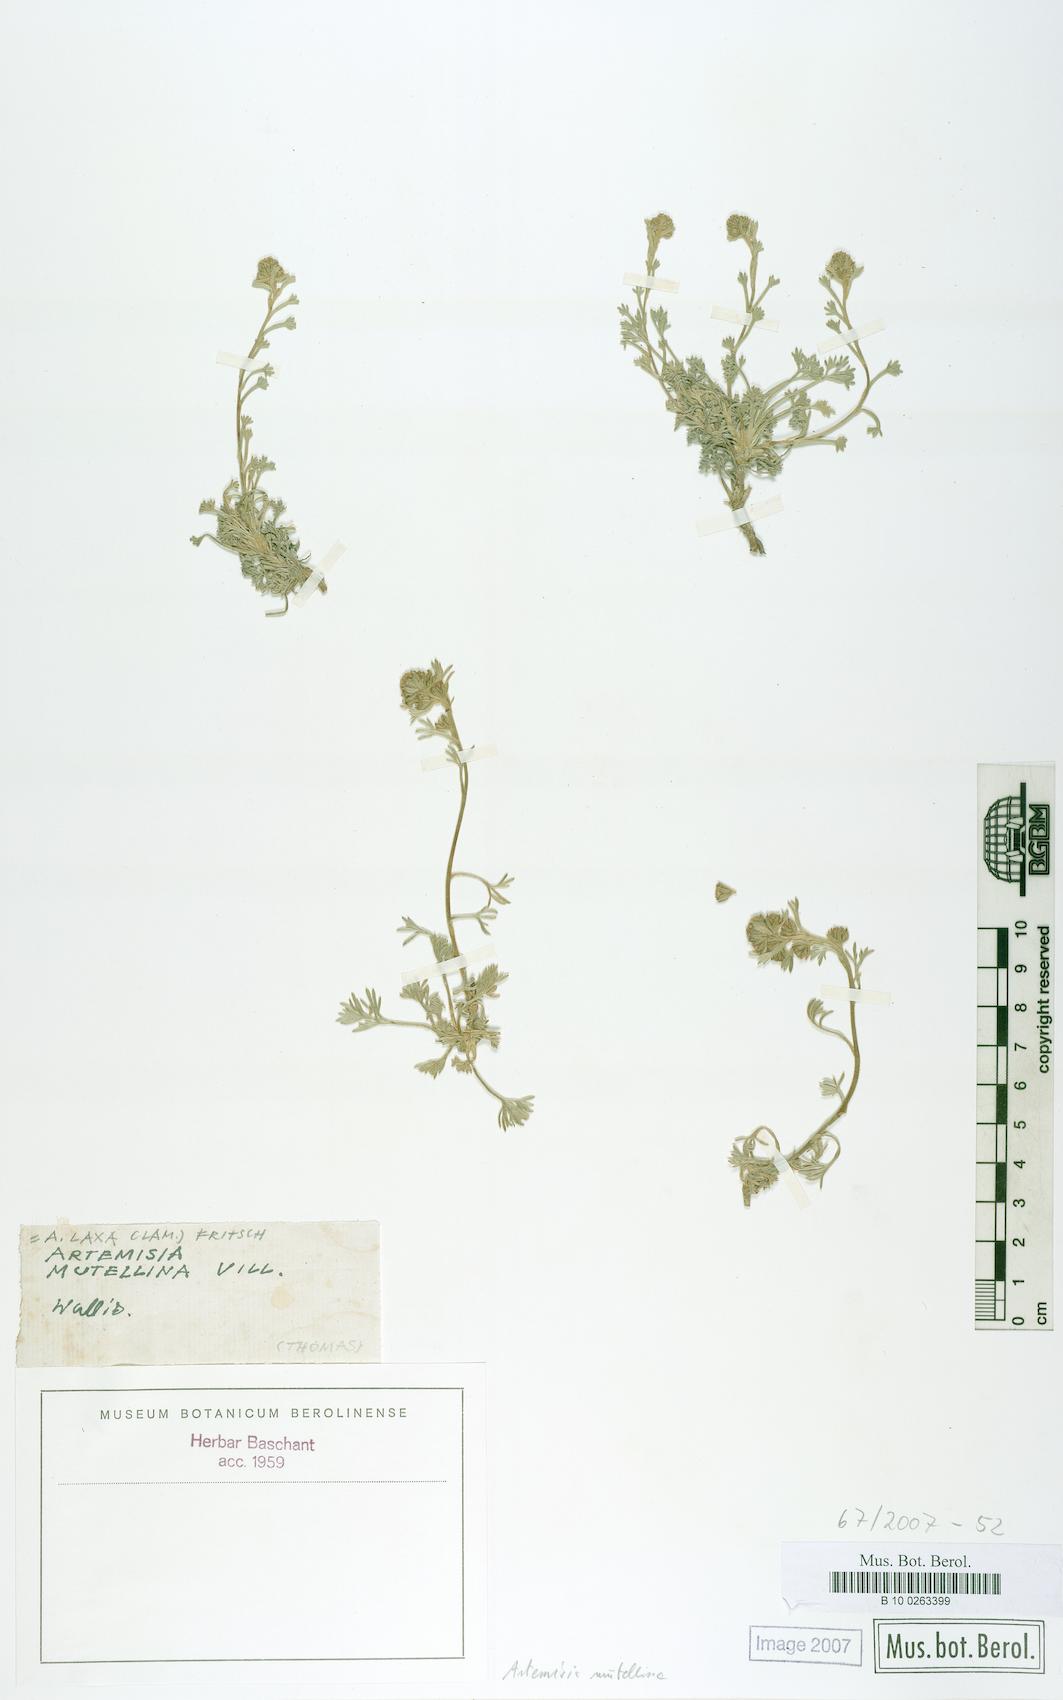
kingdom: Plantae
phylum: Tracheophyta
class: Magnoliopsida
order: Asterales
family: Asteraceae
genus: Artemisia
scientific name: Artemisia mutellina
